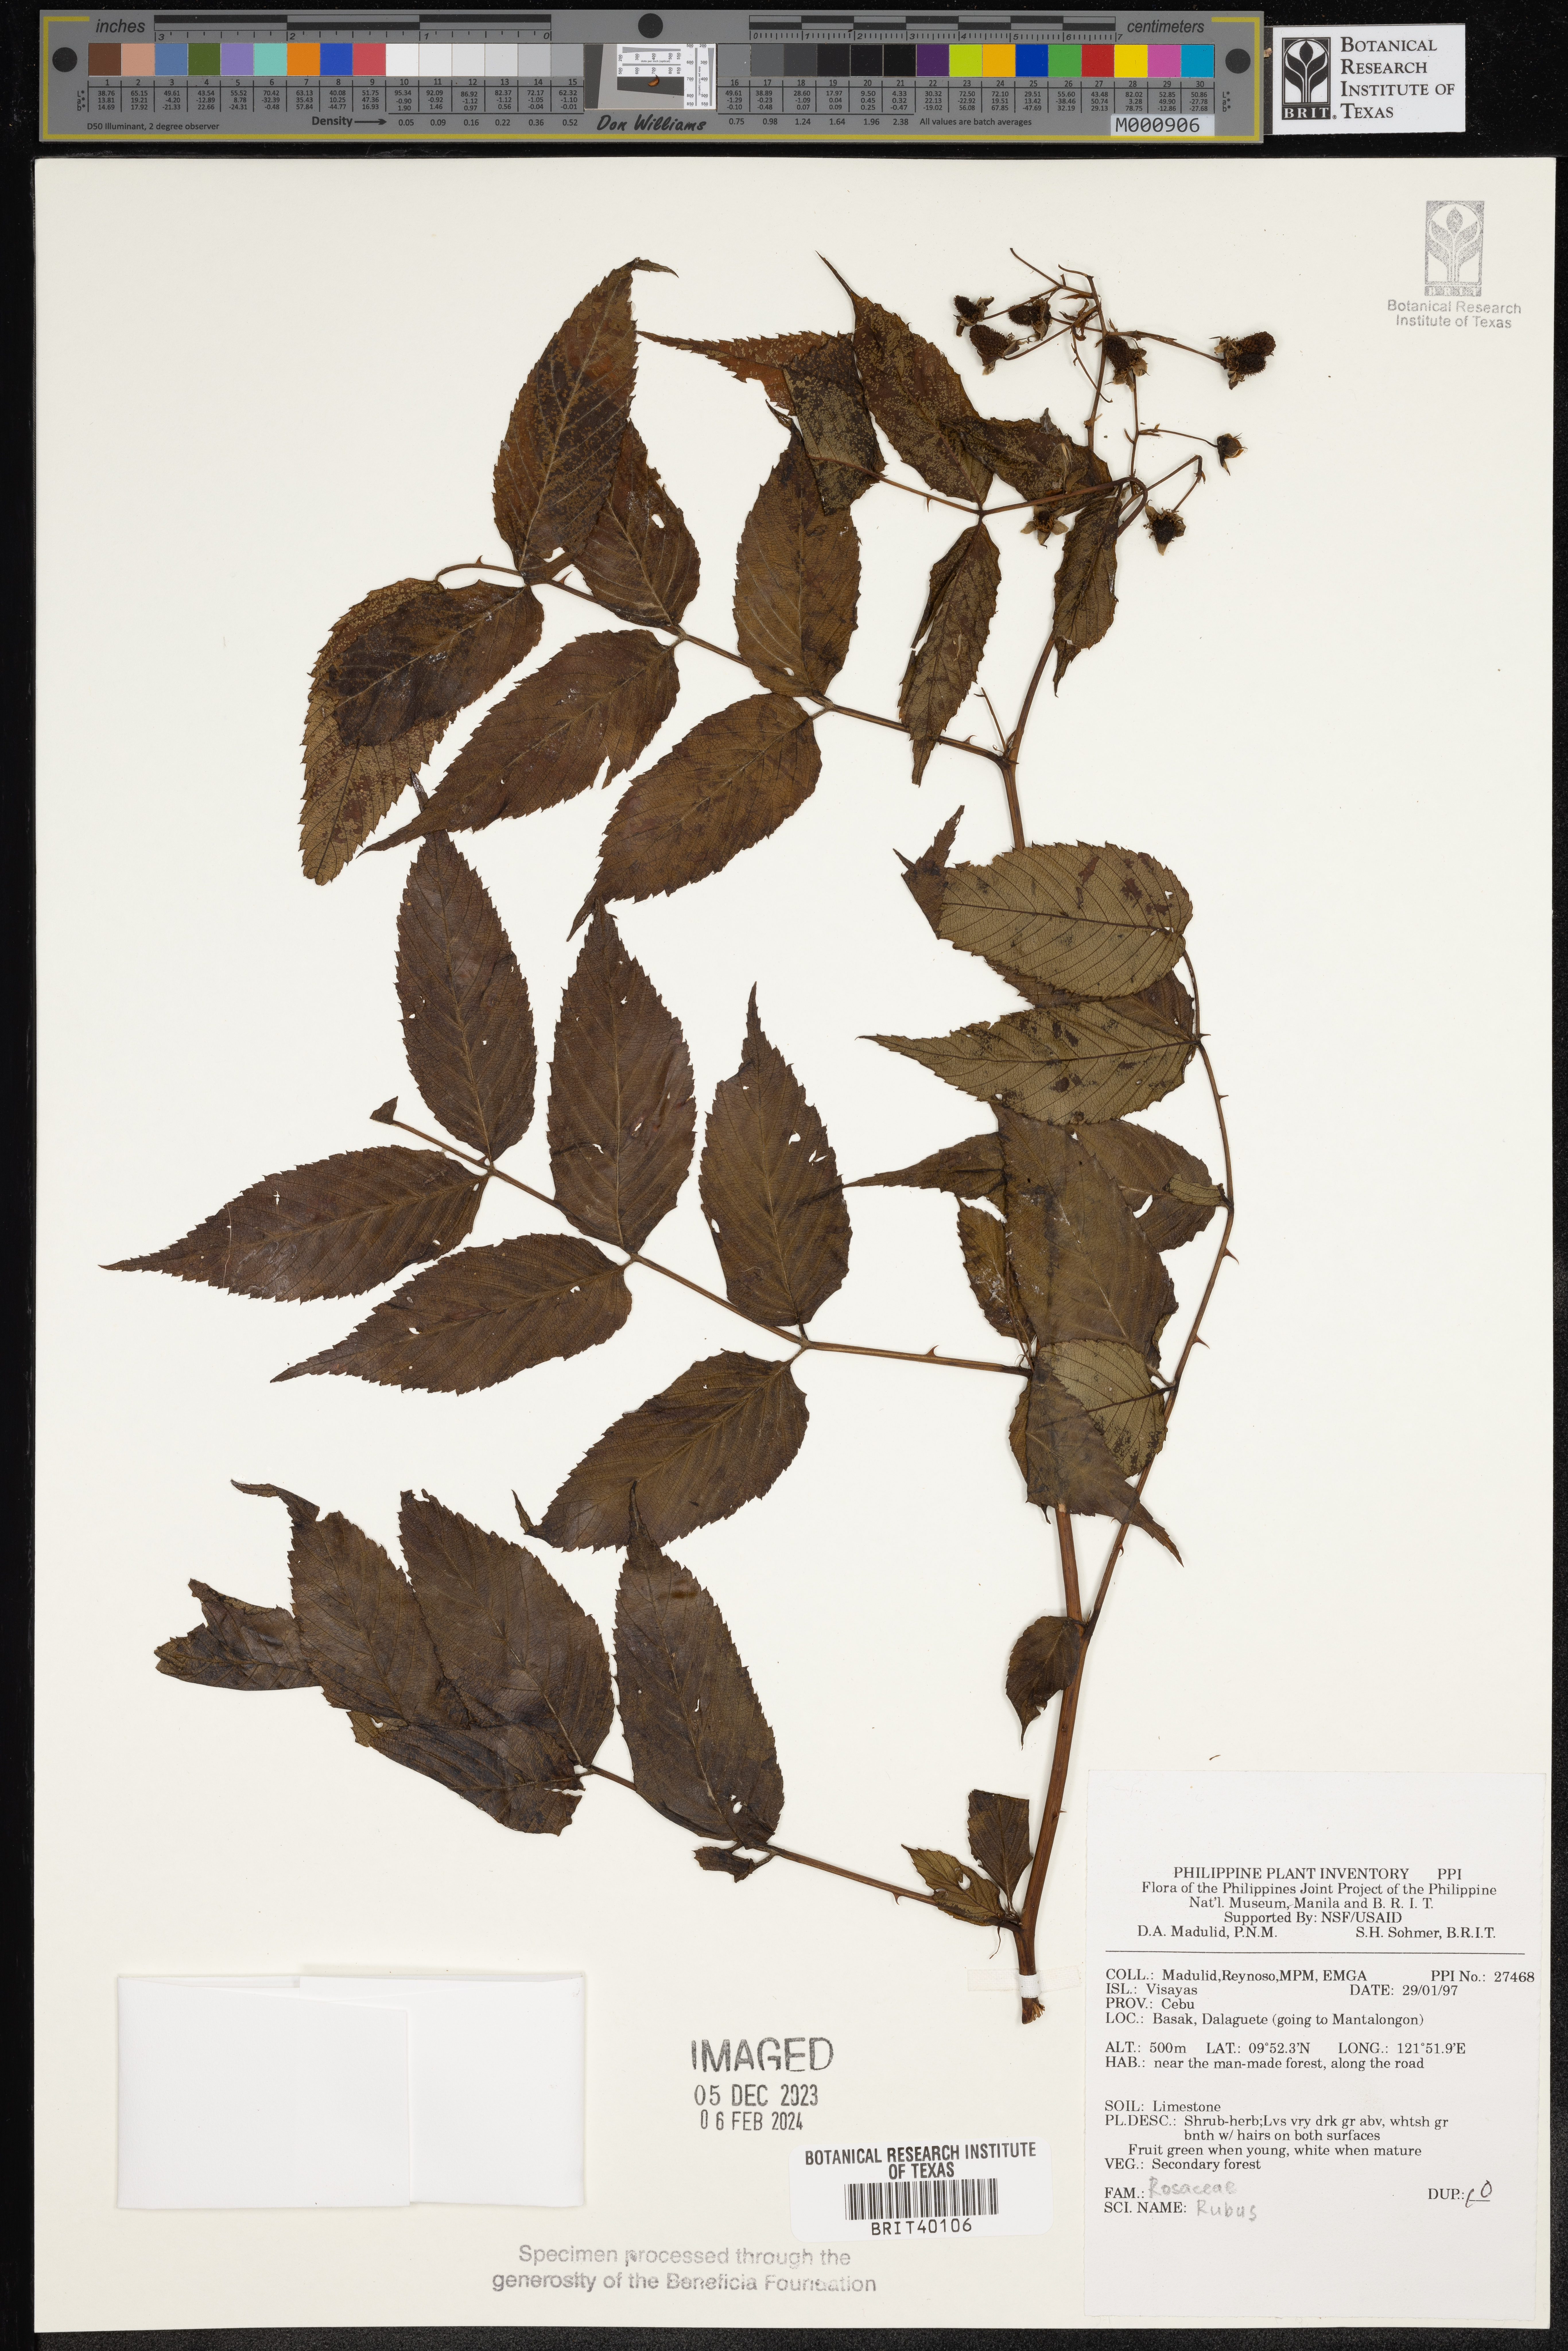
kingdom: Plantae
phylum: Tracheophyta
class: Magnoliopsida
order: Rosales
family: Rosaceae
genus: Rubus
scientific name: Rubus
